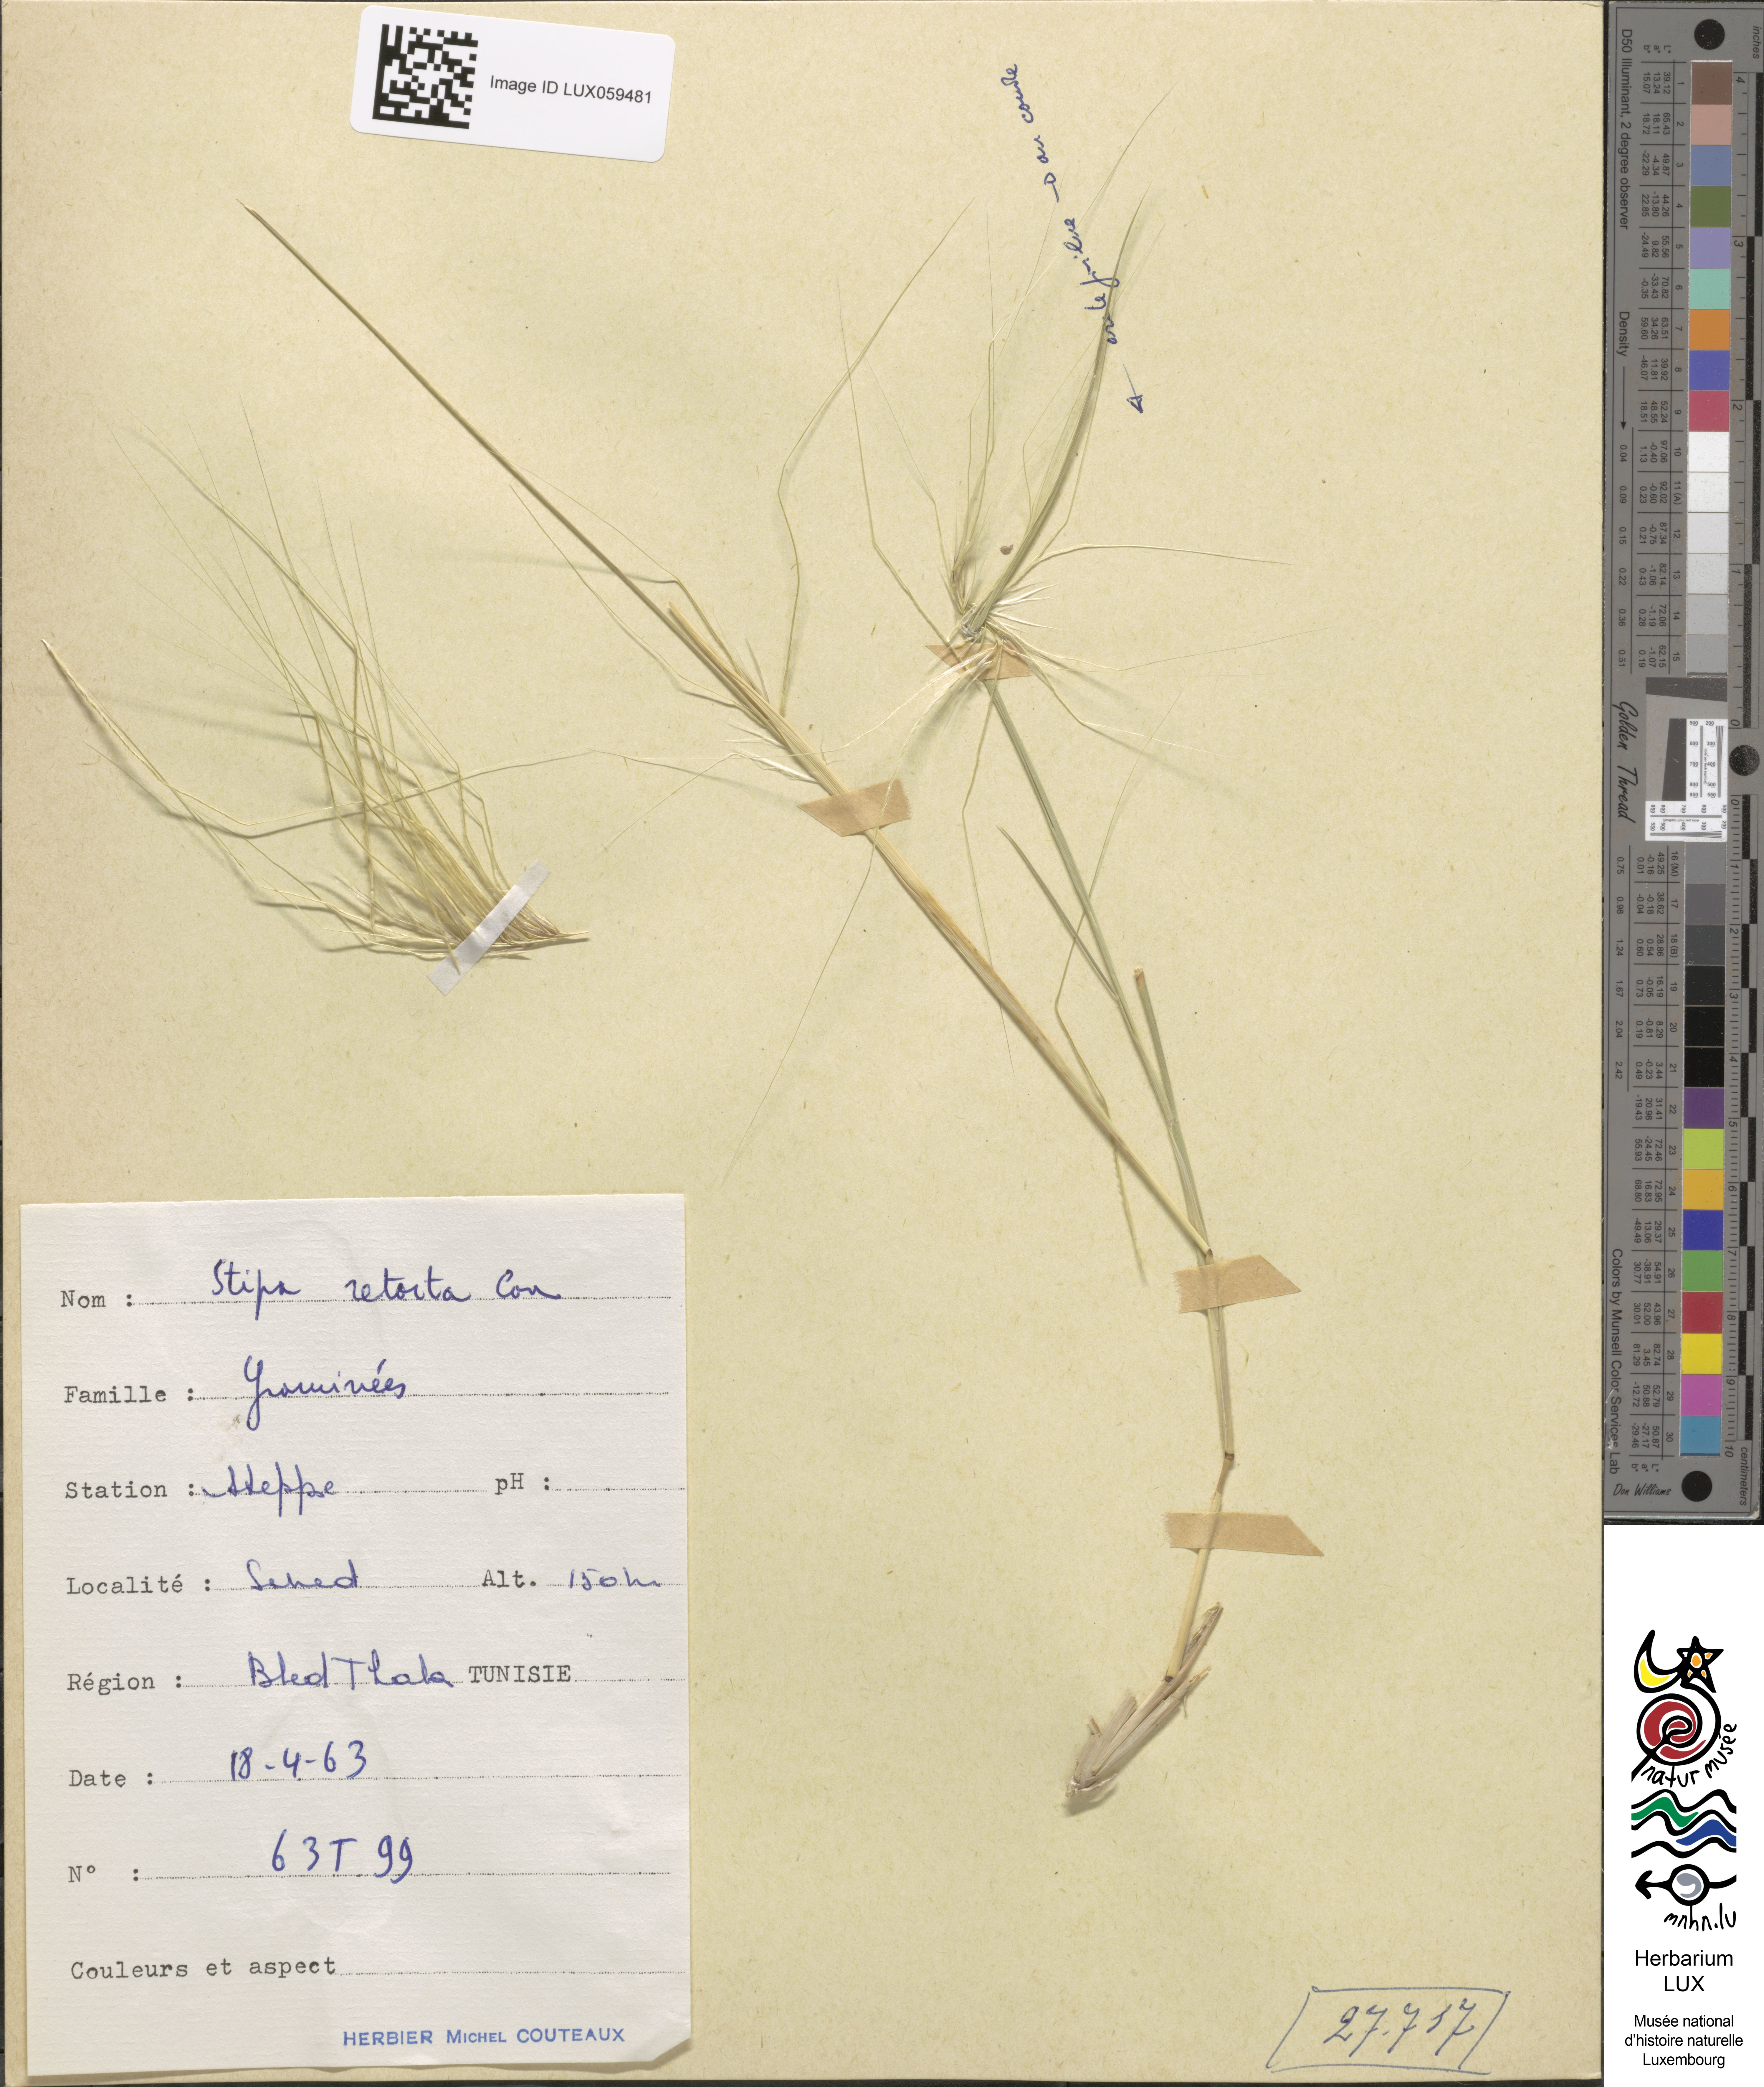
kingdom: Plantae
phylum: Tracheophyta
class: Liliopsida
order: Poales
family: Poaceae
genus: Stipellula
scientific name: Stipellula capensis
